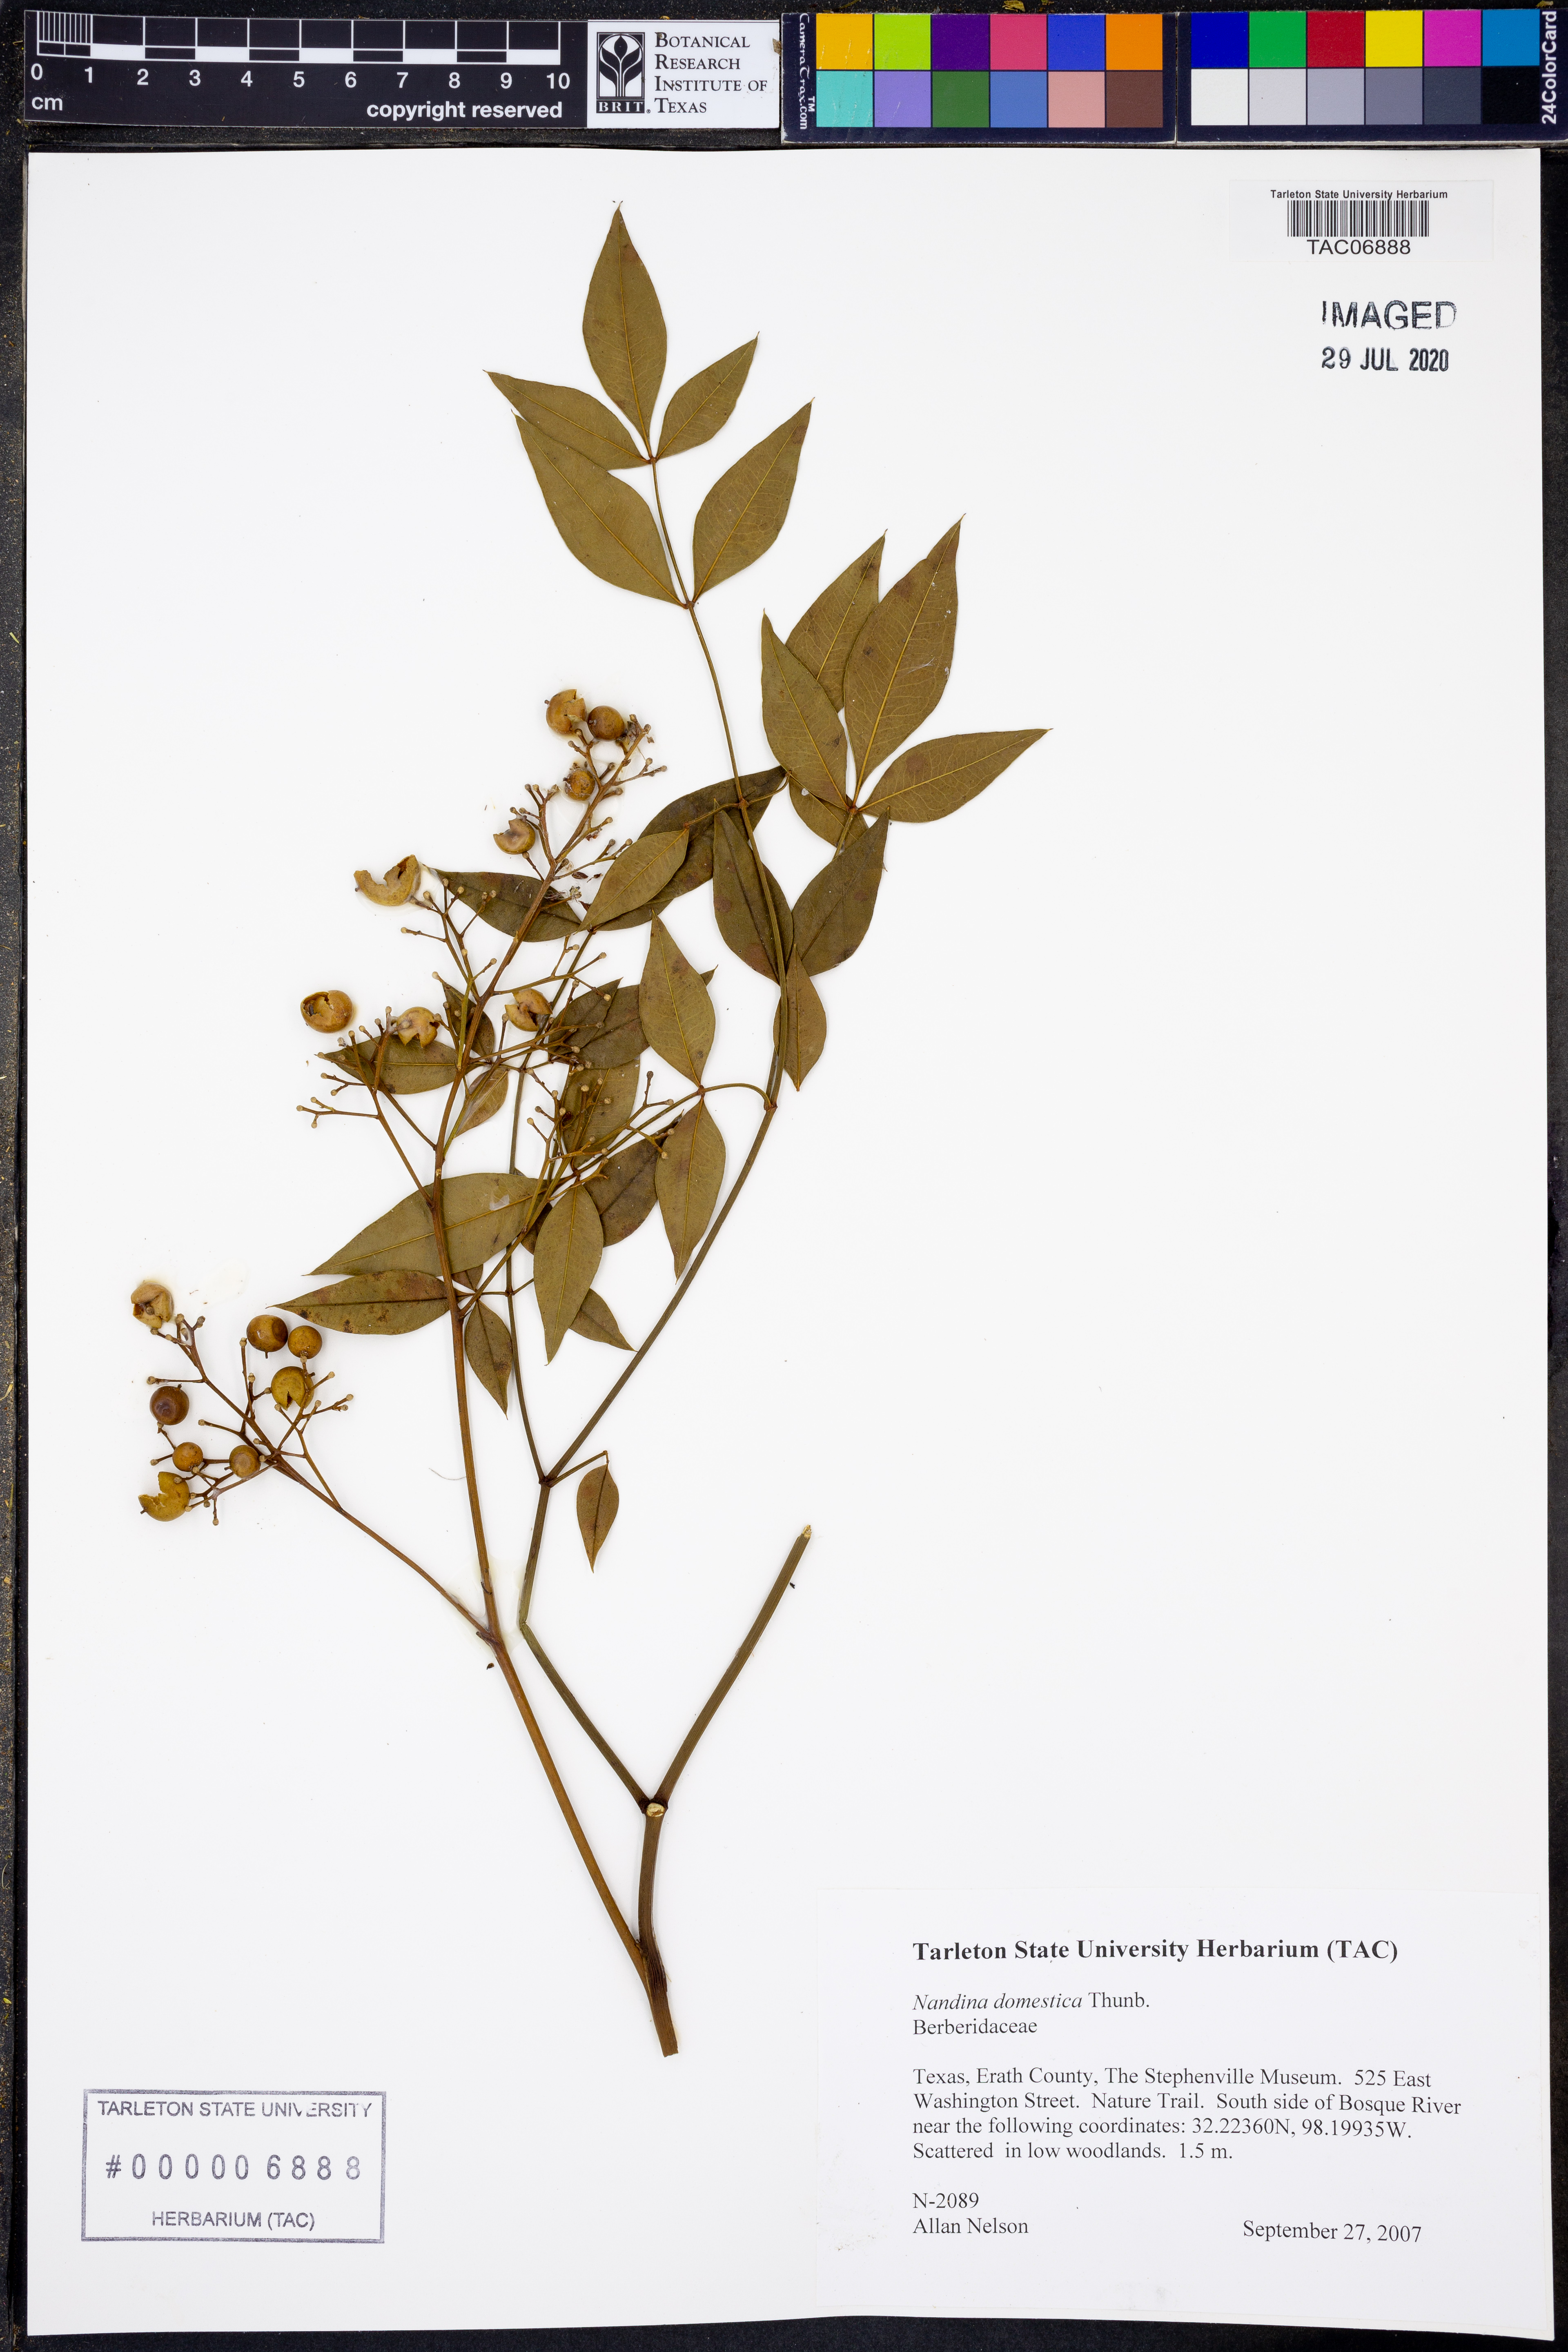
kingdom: Plantae
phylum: Tracheophyta
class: Magnoliopsida
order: Ranunculales
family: Berberidaceae
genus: Nandina
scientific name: Nandina domestica
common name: Sacred bamboo
